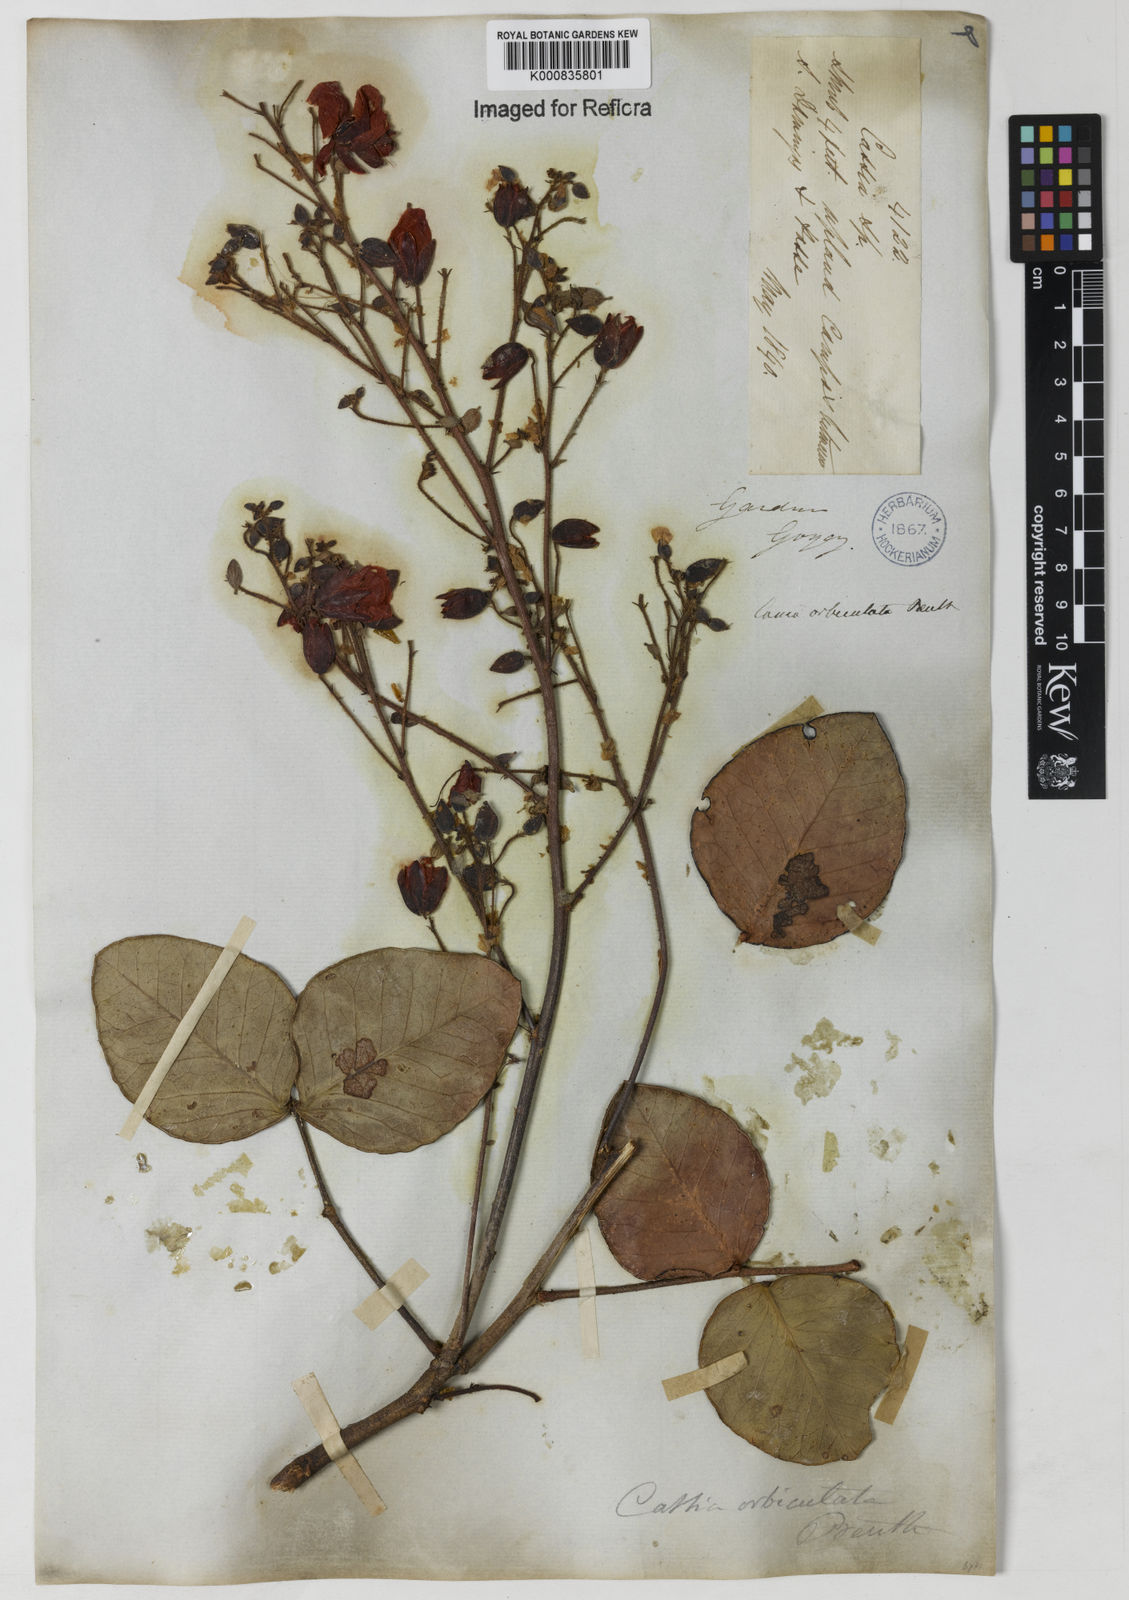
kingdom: Plantae
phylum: Tracheophyta
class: Magnoliopsida
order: Fabales
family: Fabaceae
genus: Chamaecrista
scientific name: Chamaecrista orbiculata
